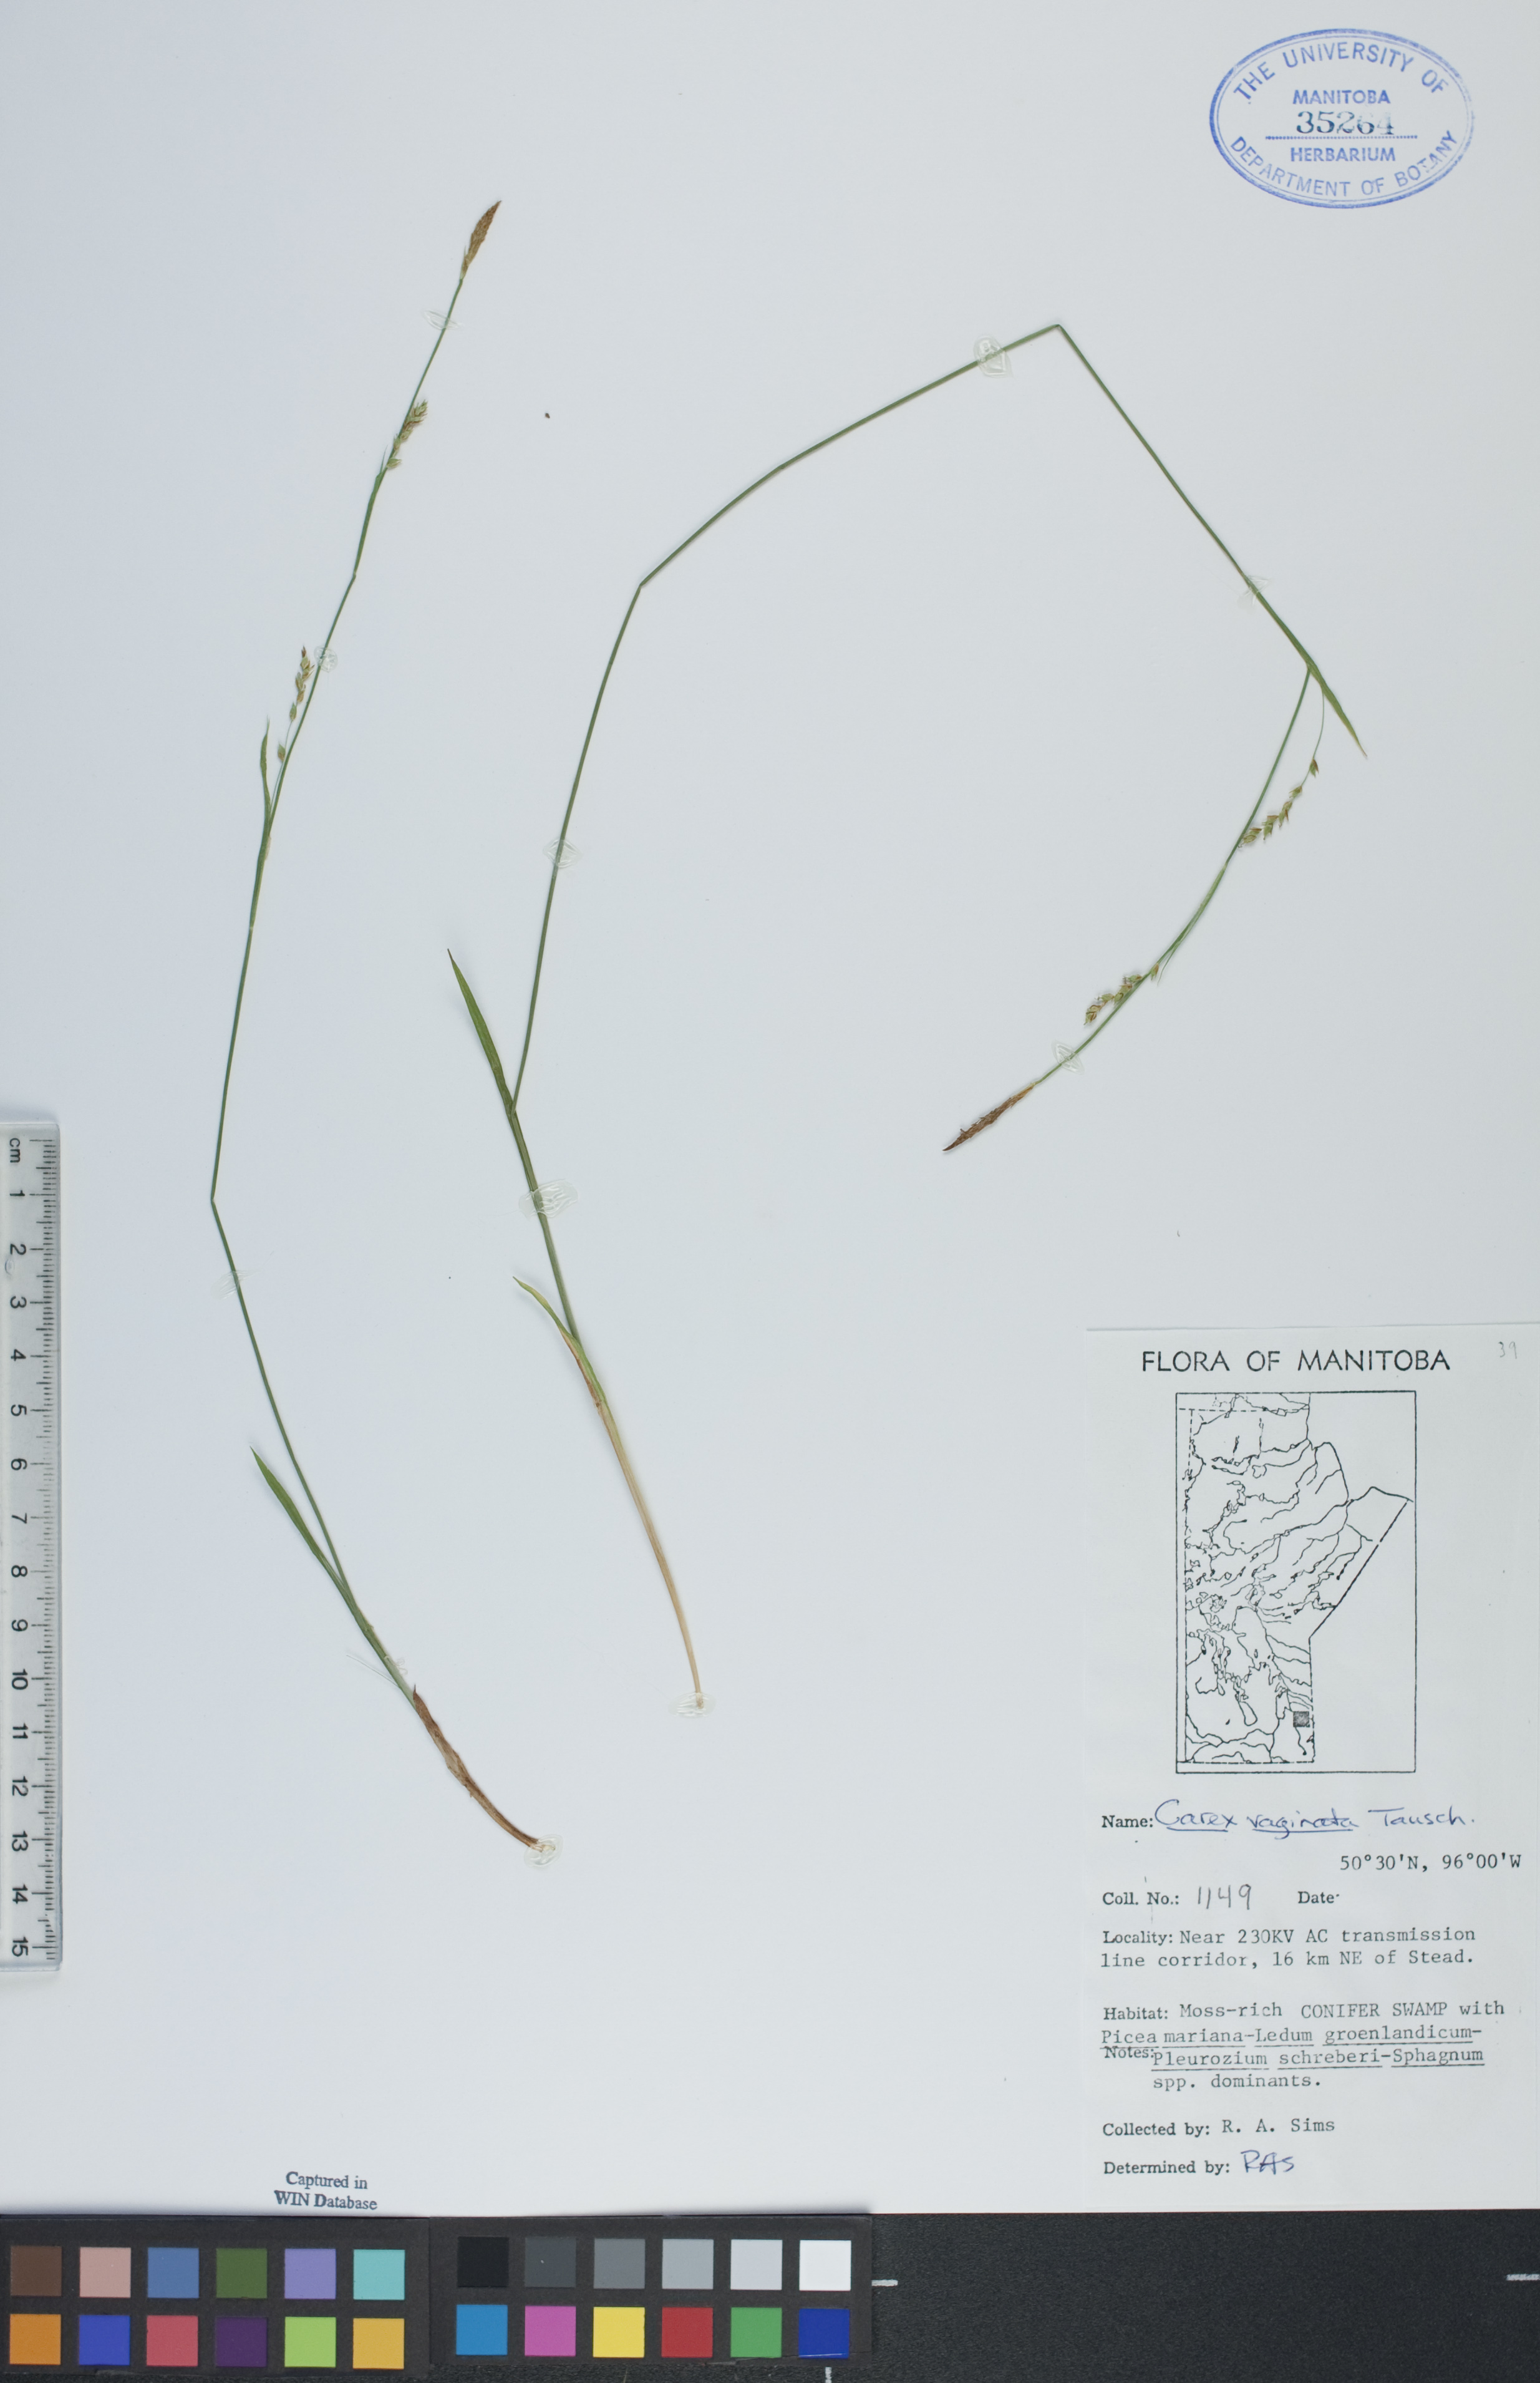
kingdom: Plantae
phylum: Tracheophyta
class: Liliopsida
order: Poales
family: Cyperaceae
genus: Carex
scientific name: Carex vaginata
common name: Sheathed sedge
